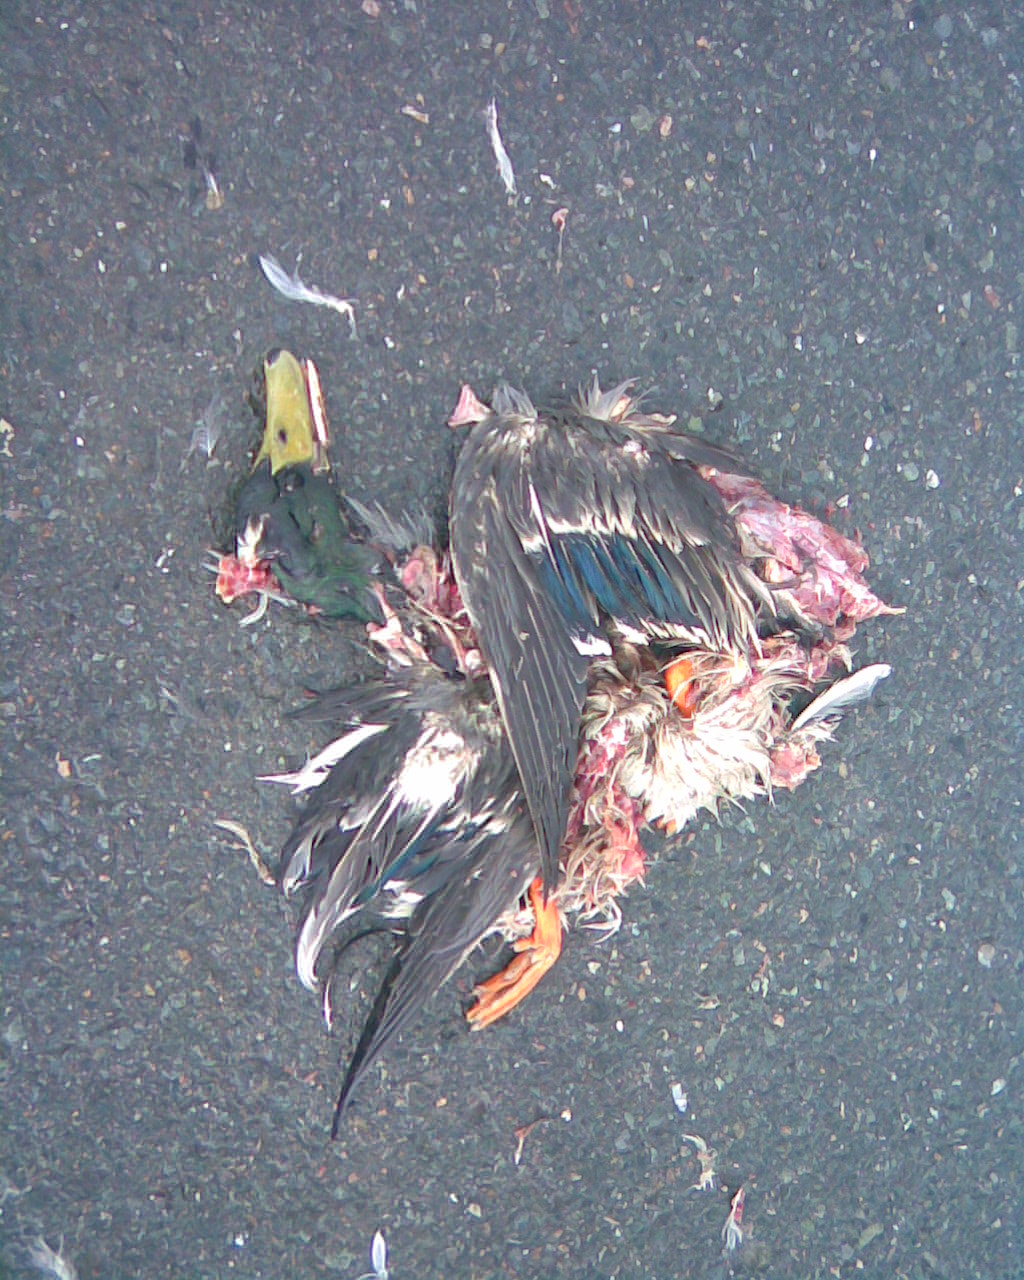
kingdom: Animalia
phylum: Chordata
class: Aves
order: Anseriformes
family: Anatidae
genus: Anas
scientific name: Anas platyrhynchos
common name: Mallard
